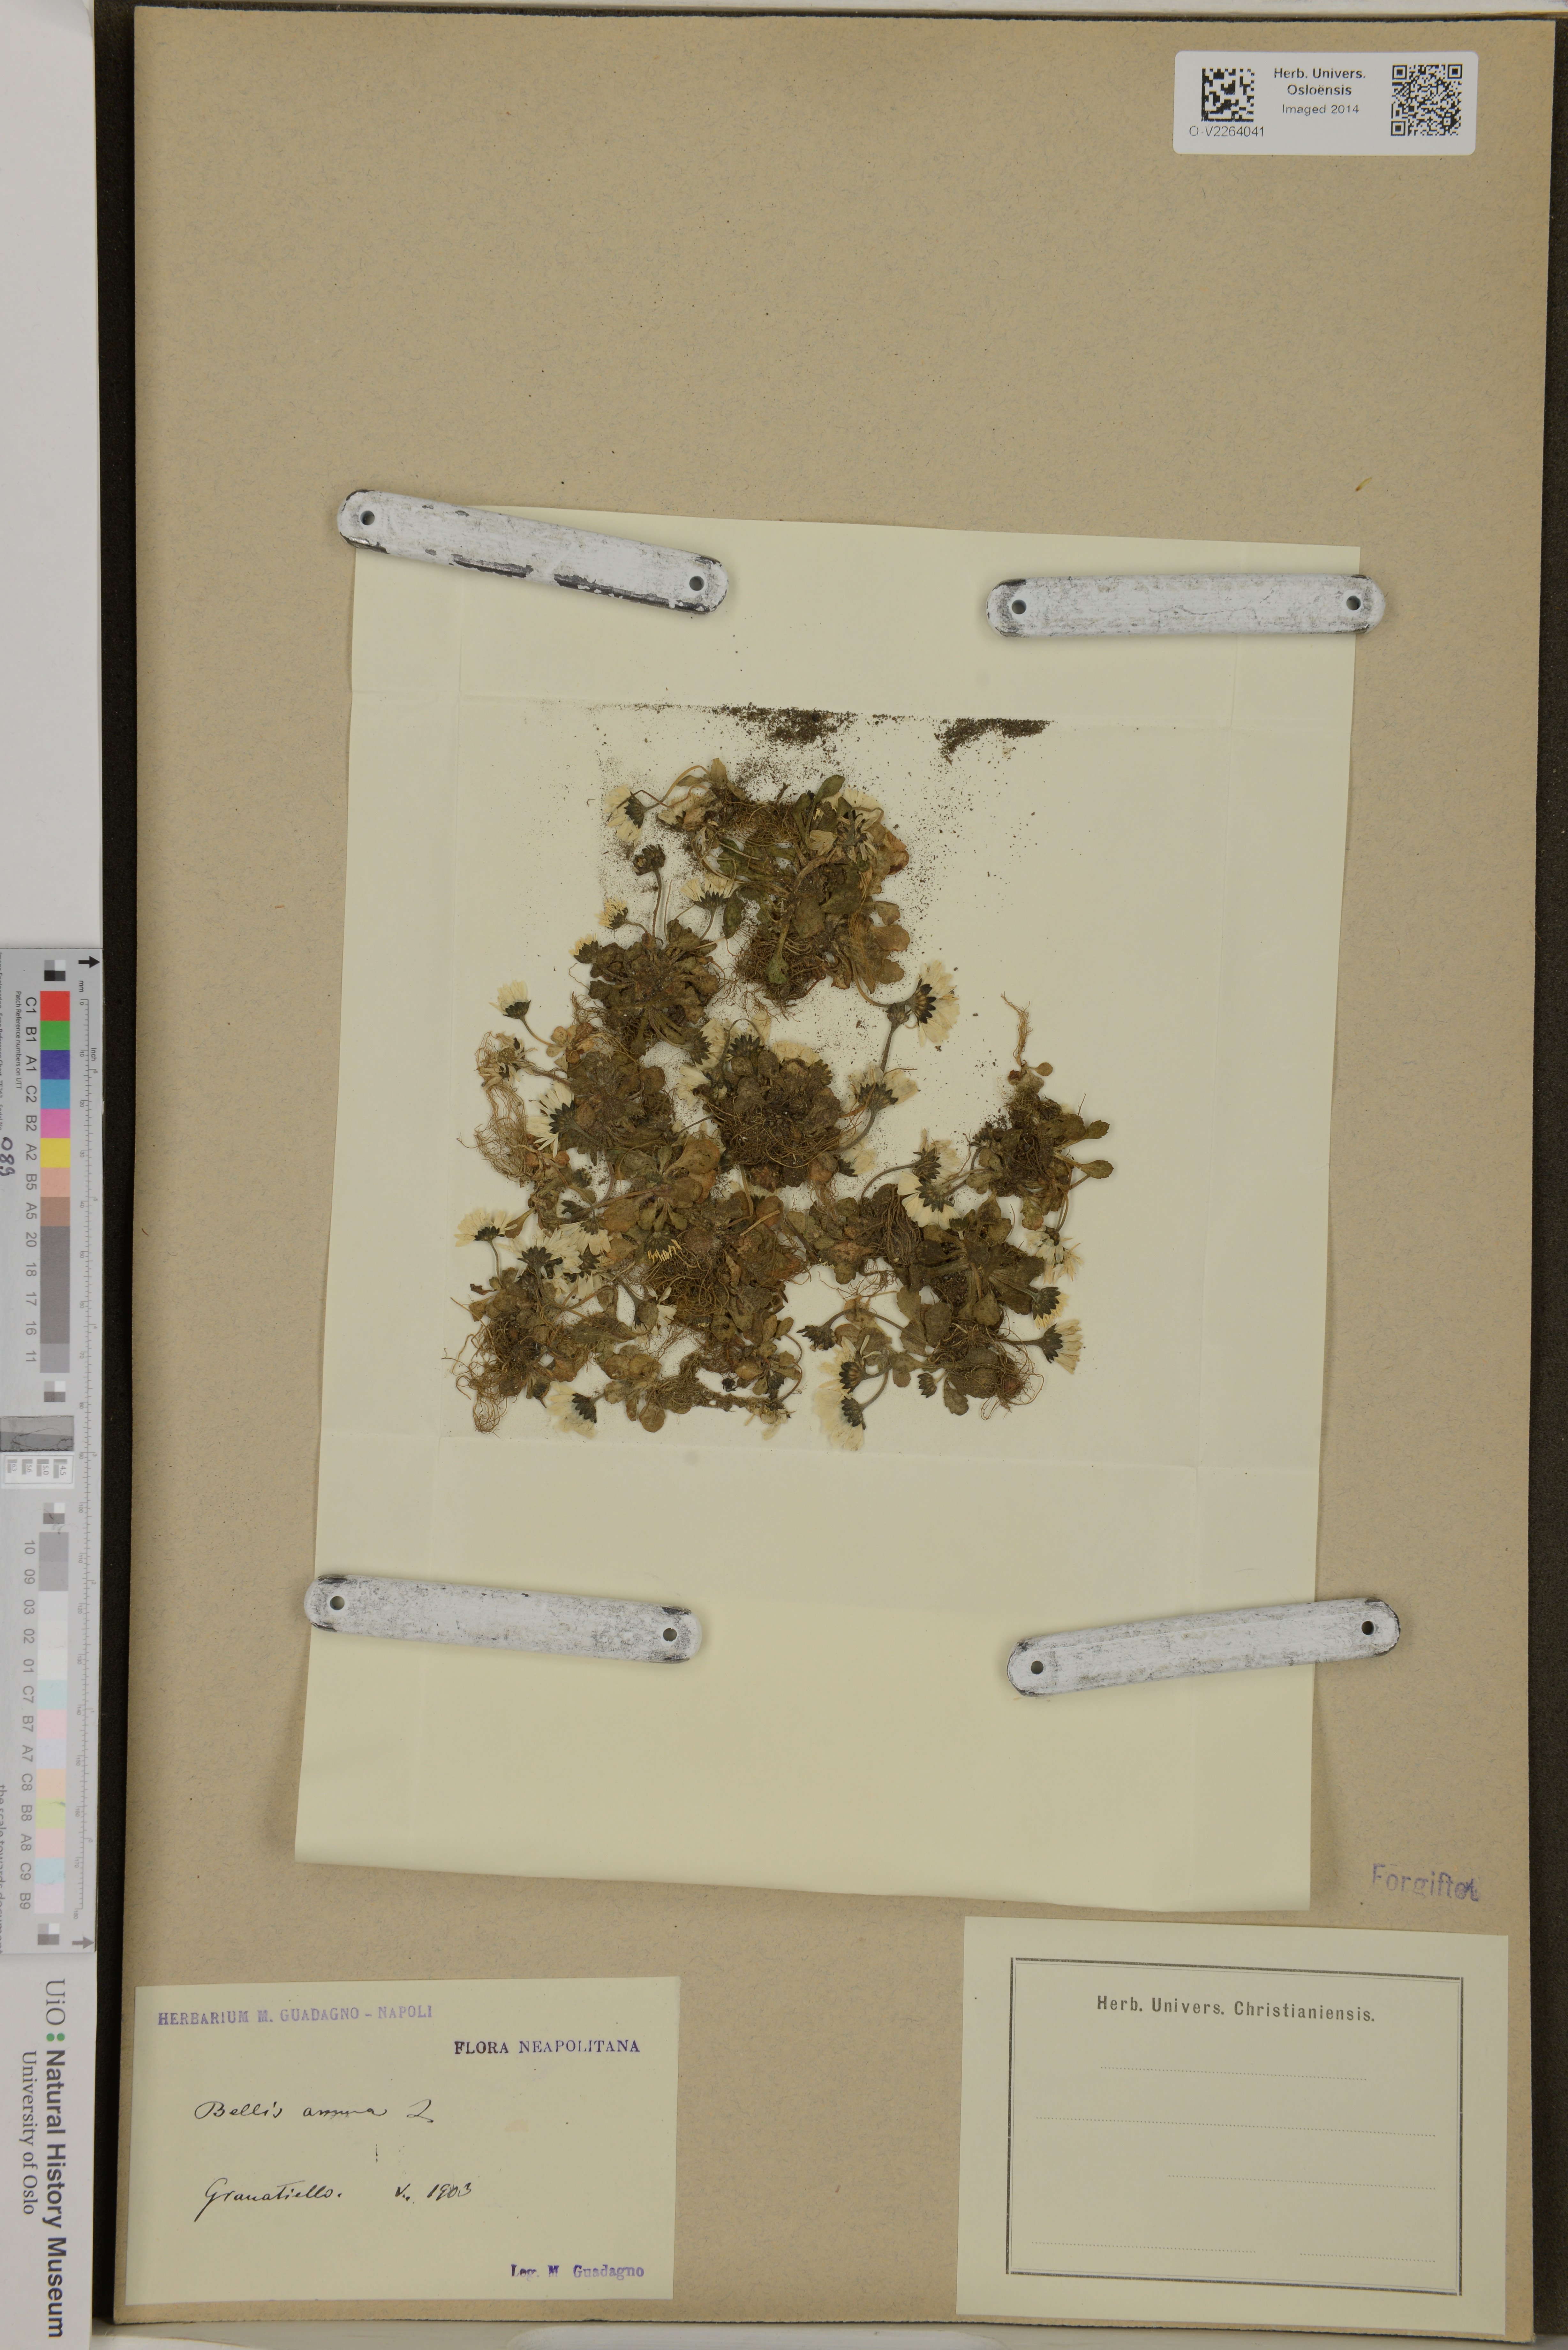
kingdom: Plantae
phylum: Tracheophyta
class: Magnoliopsida
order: Asterales
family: Asteraceae
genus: Bellis
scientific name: Bellis annua
